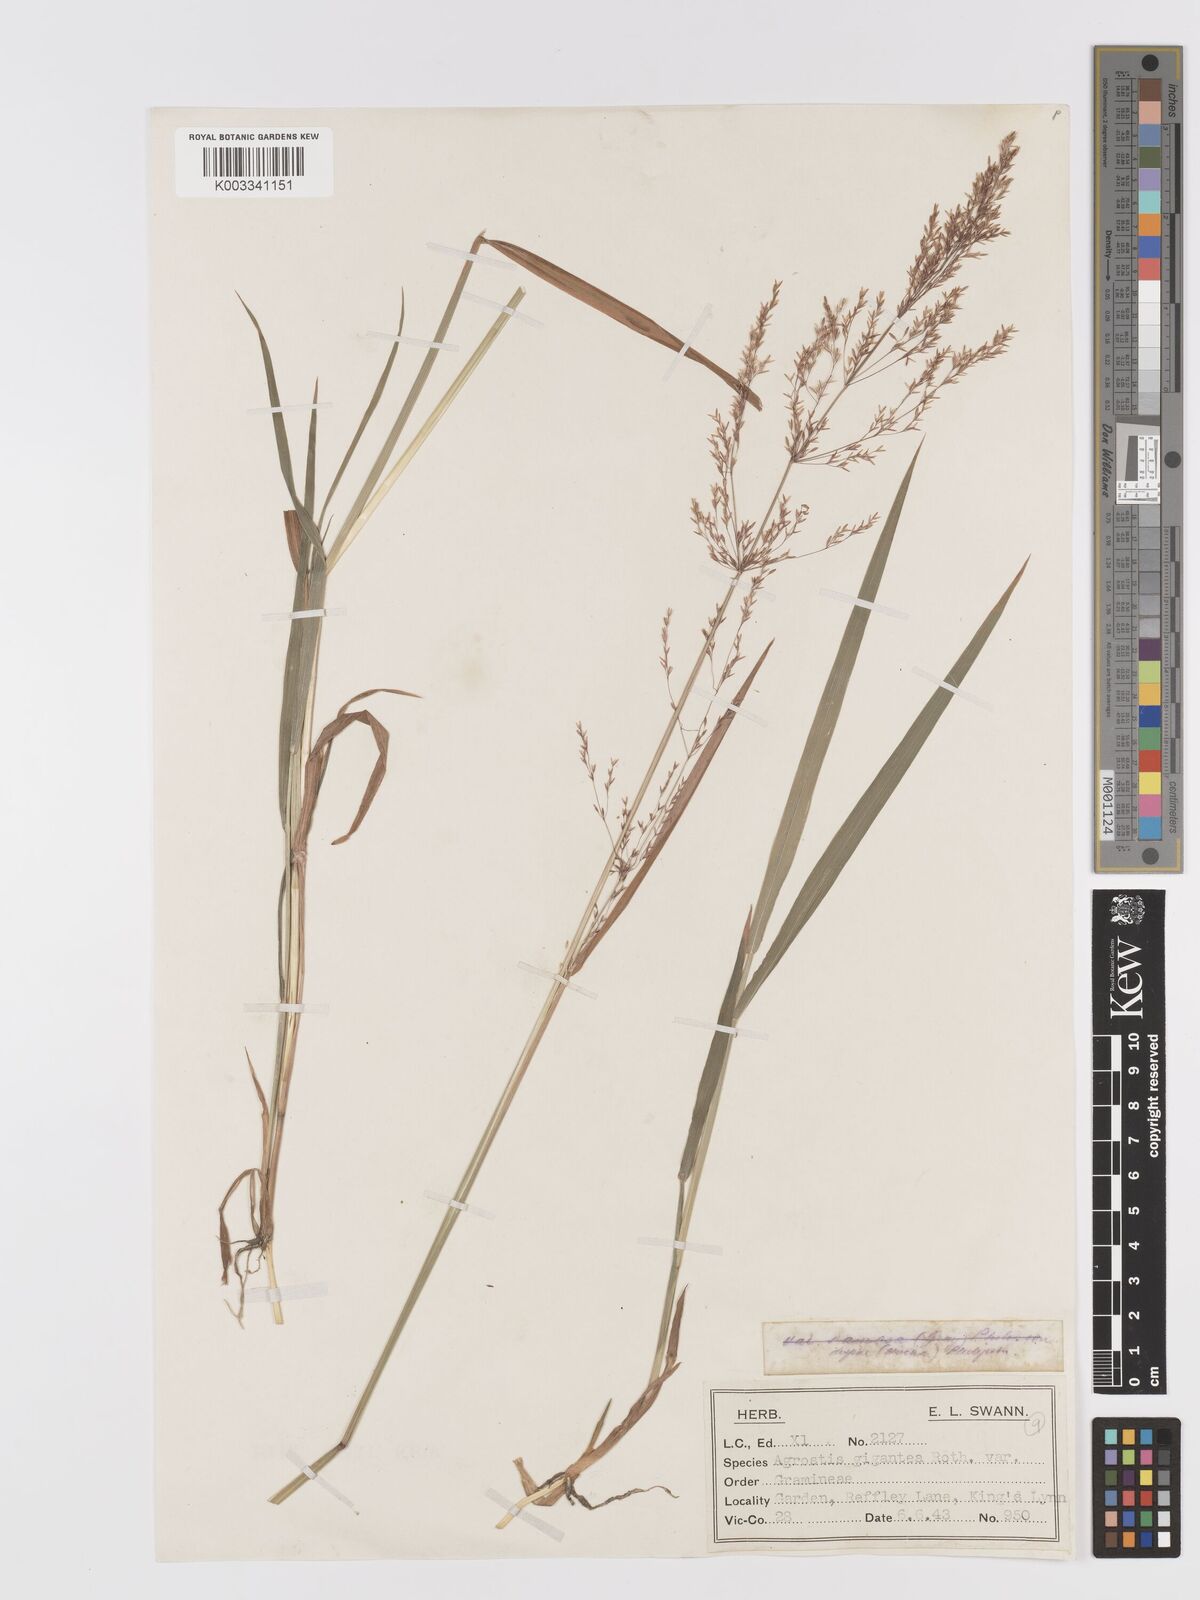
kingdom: Plantae
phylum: Tracheophyta
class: Liliopsida
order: Poales
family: Poaceae
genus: Agrostis
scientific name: Agrostis gigantea
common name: Black bent
